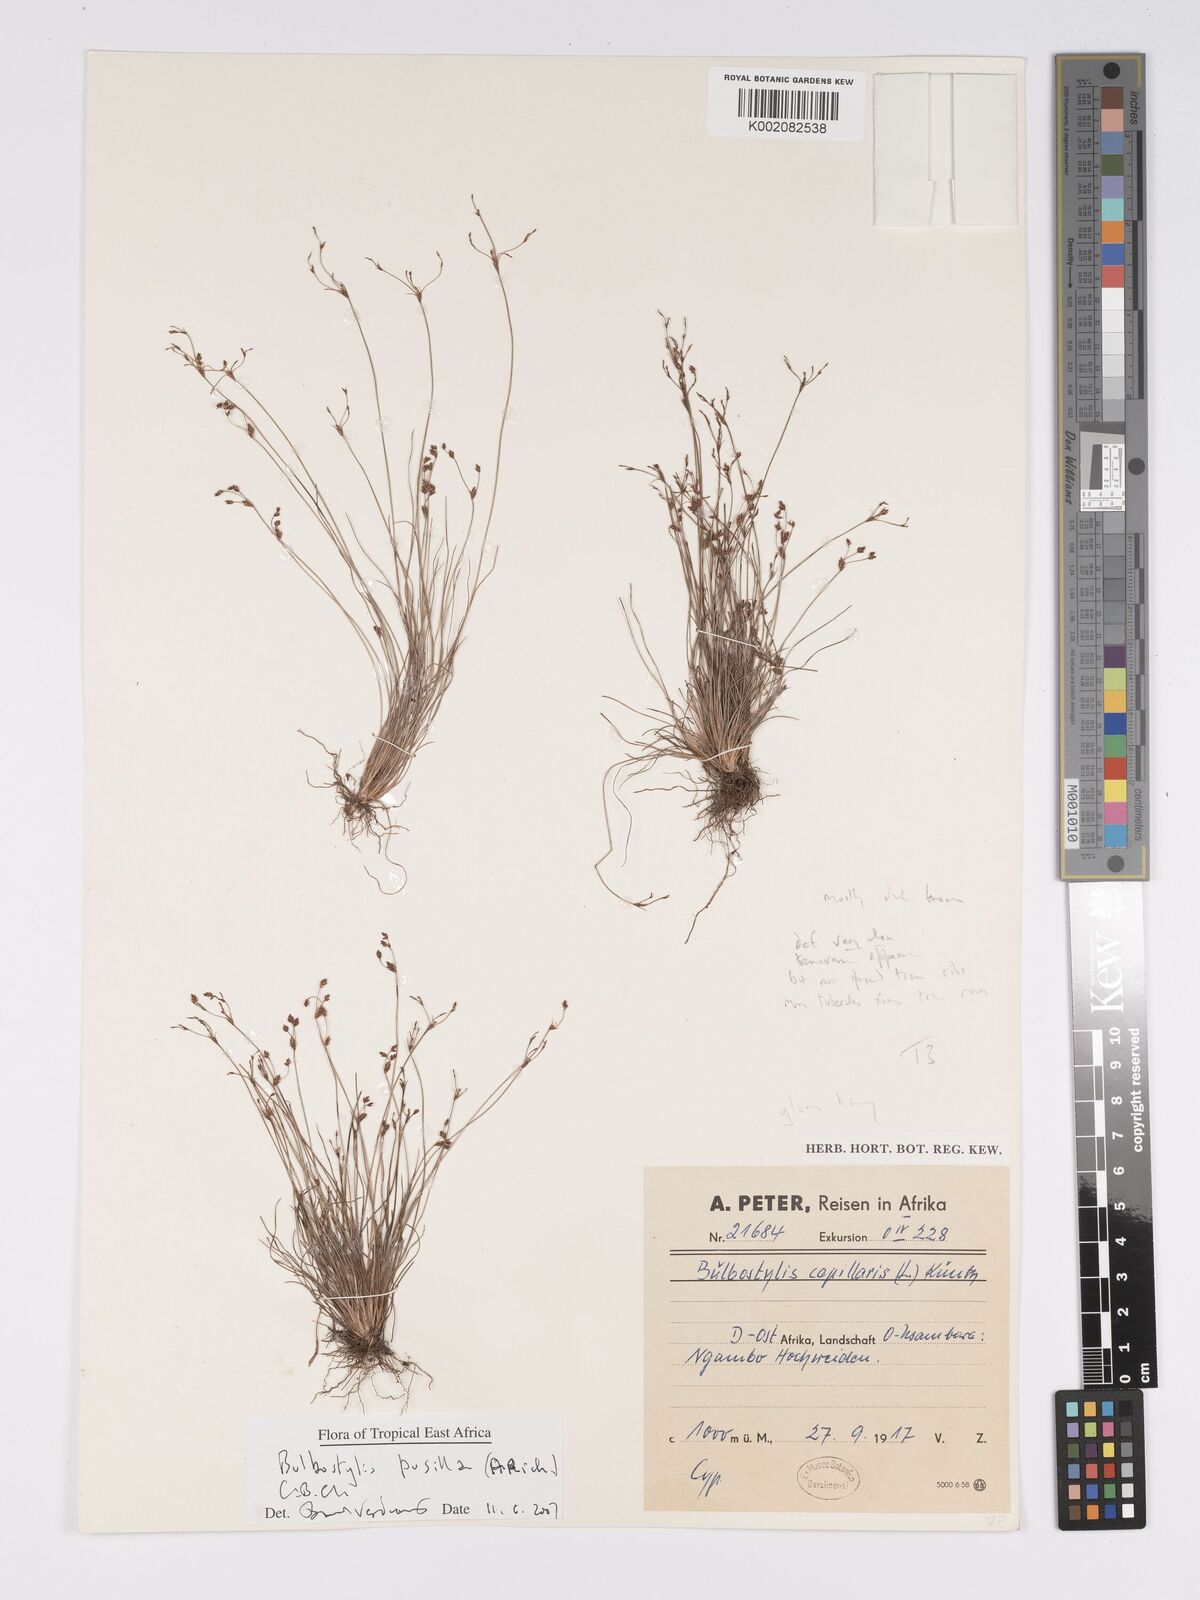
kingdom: Plantae
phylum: Tracheophyta
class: Liliopsida
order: Poales
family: Cyperaceae
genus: Bulbostylis
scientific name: Bulbostylis pusilla
